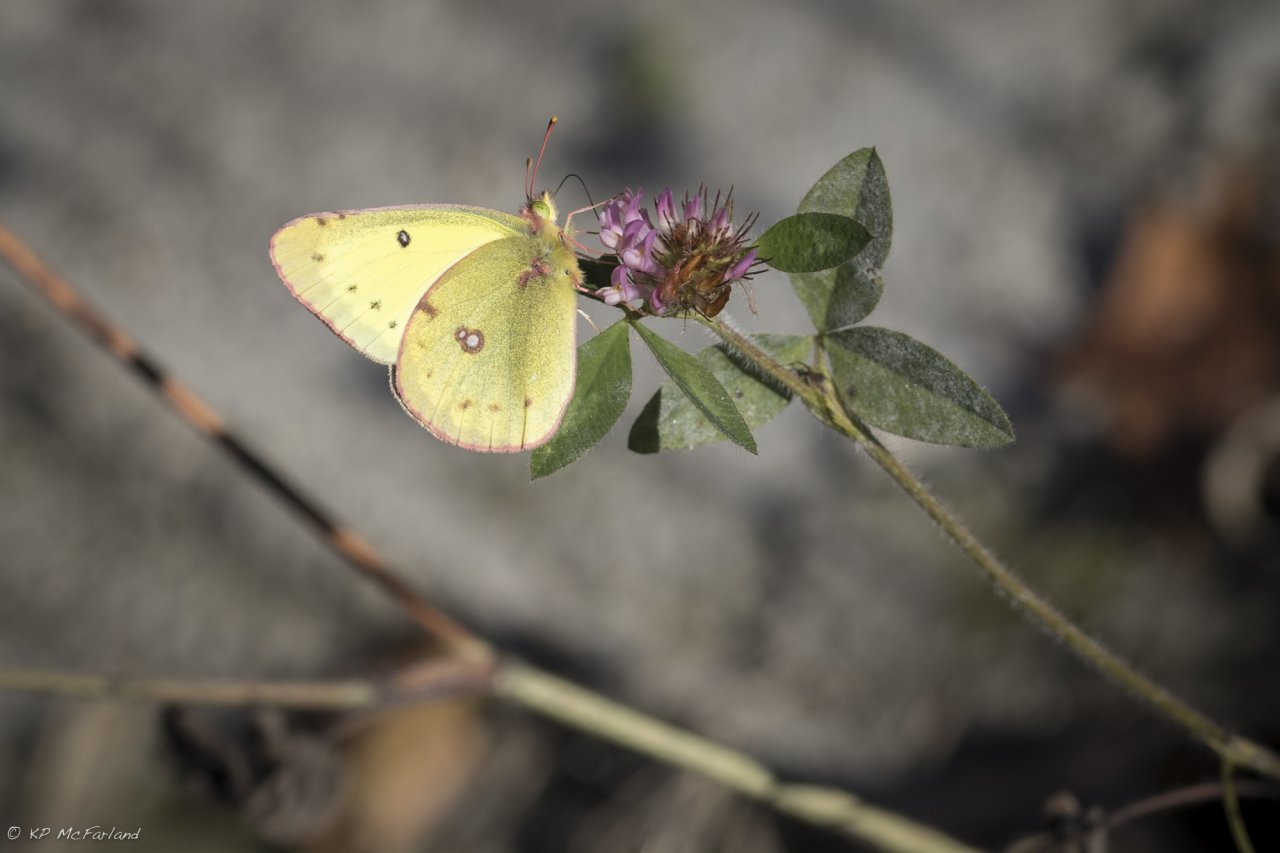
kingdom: Animalia
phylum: Arthropoda
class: Insecta
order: Lepidoptera
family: Pieridae
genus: Colias
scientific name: Colias philodice
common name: Clouded Sulphur
